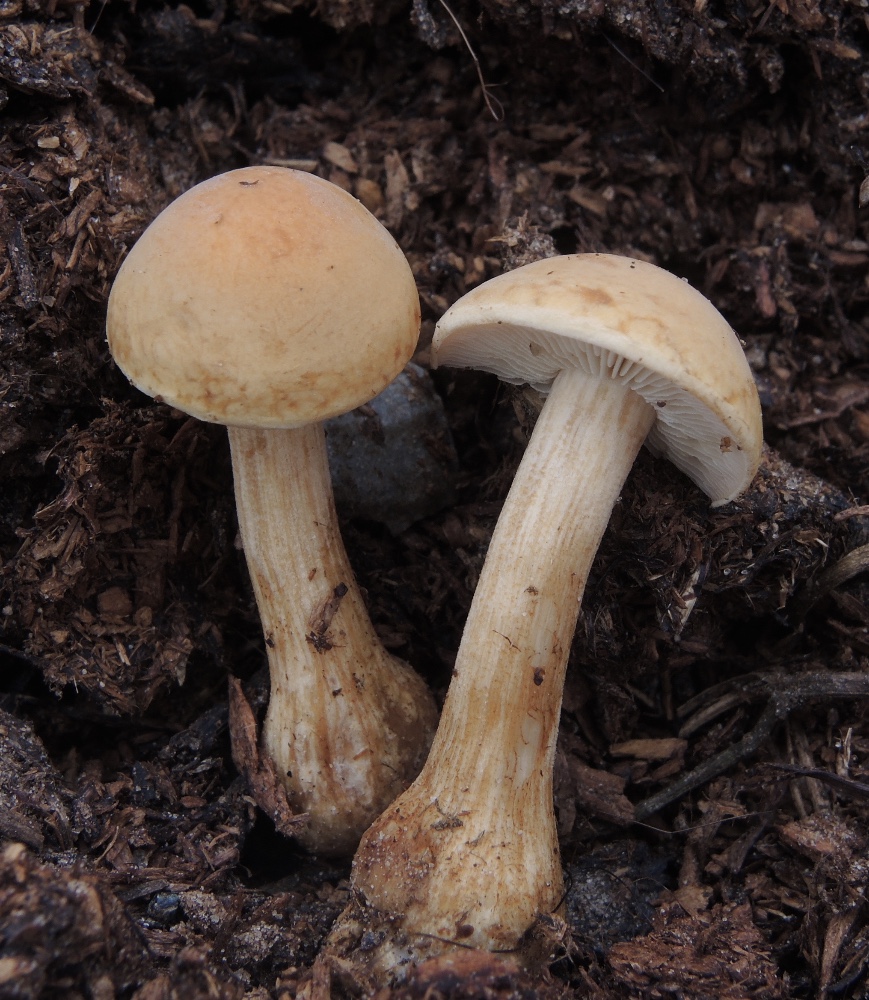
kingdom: Fungi
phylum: Basidiomycota
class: Agaricomycetes
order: Agaricales
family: Strophariaceae
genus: Agrocybe
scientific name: Agrocybe putaminum
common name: træflis-agerhat
